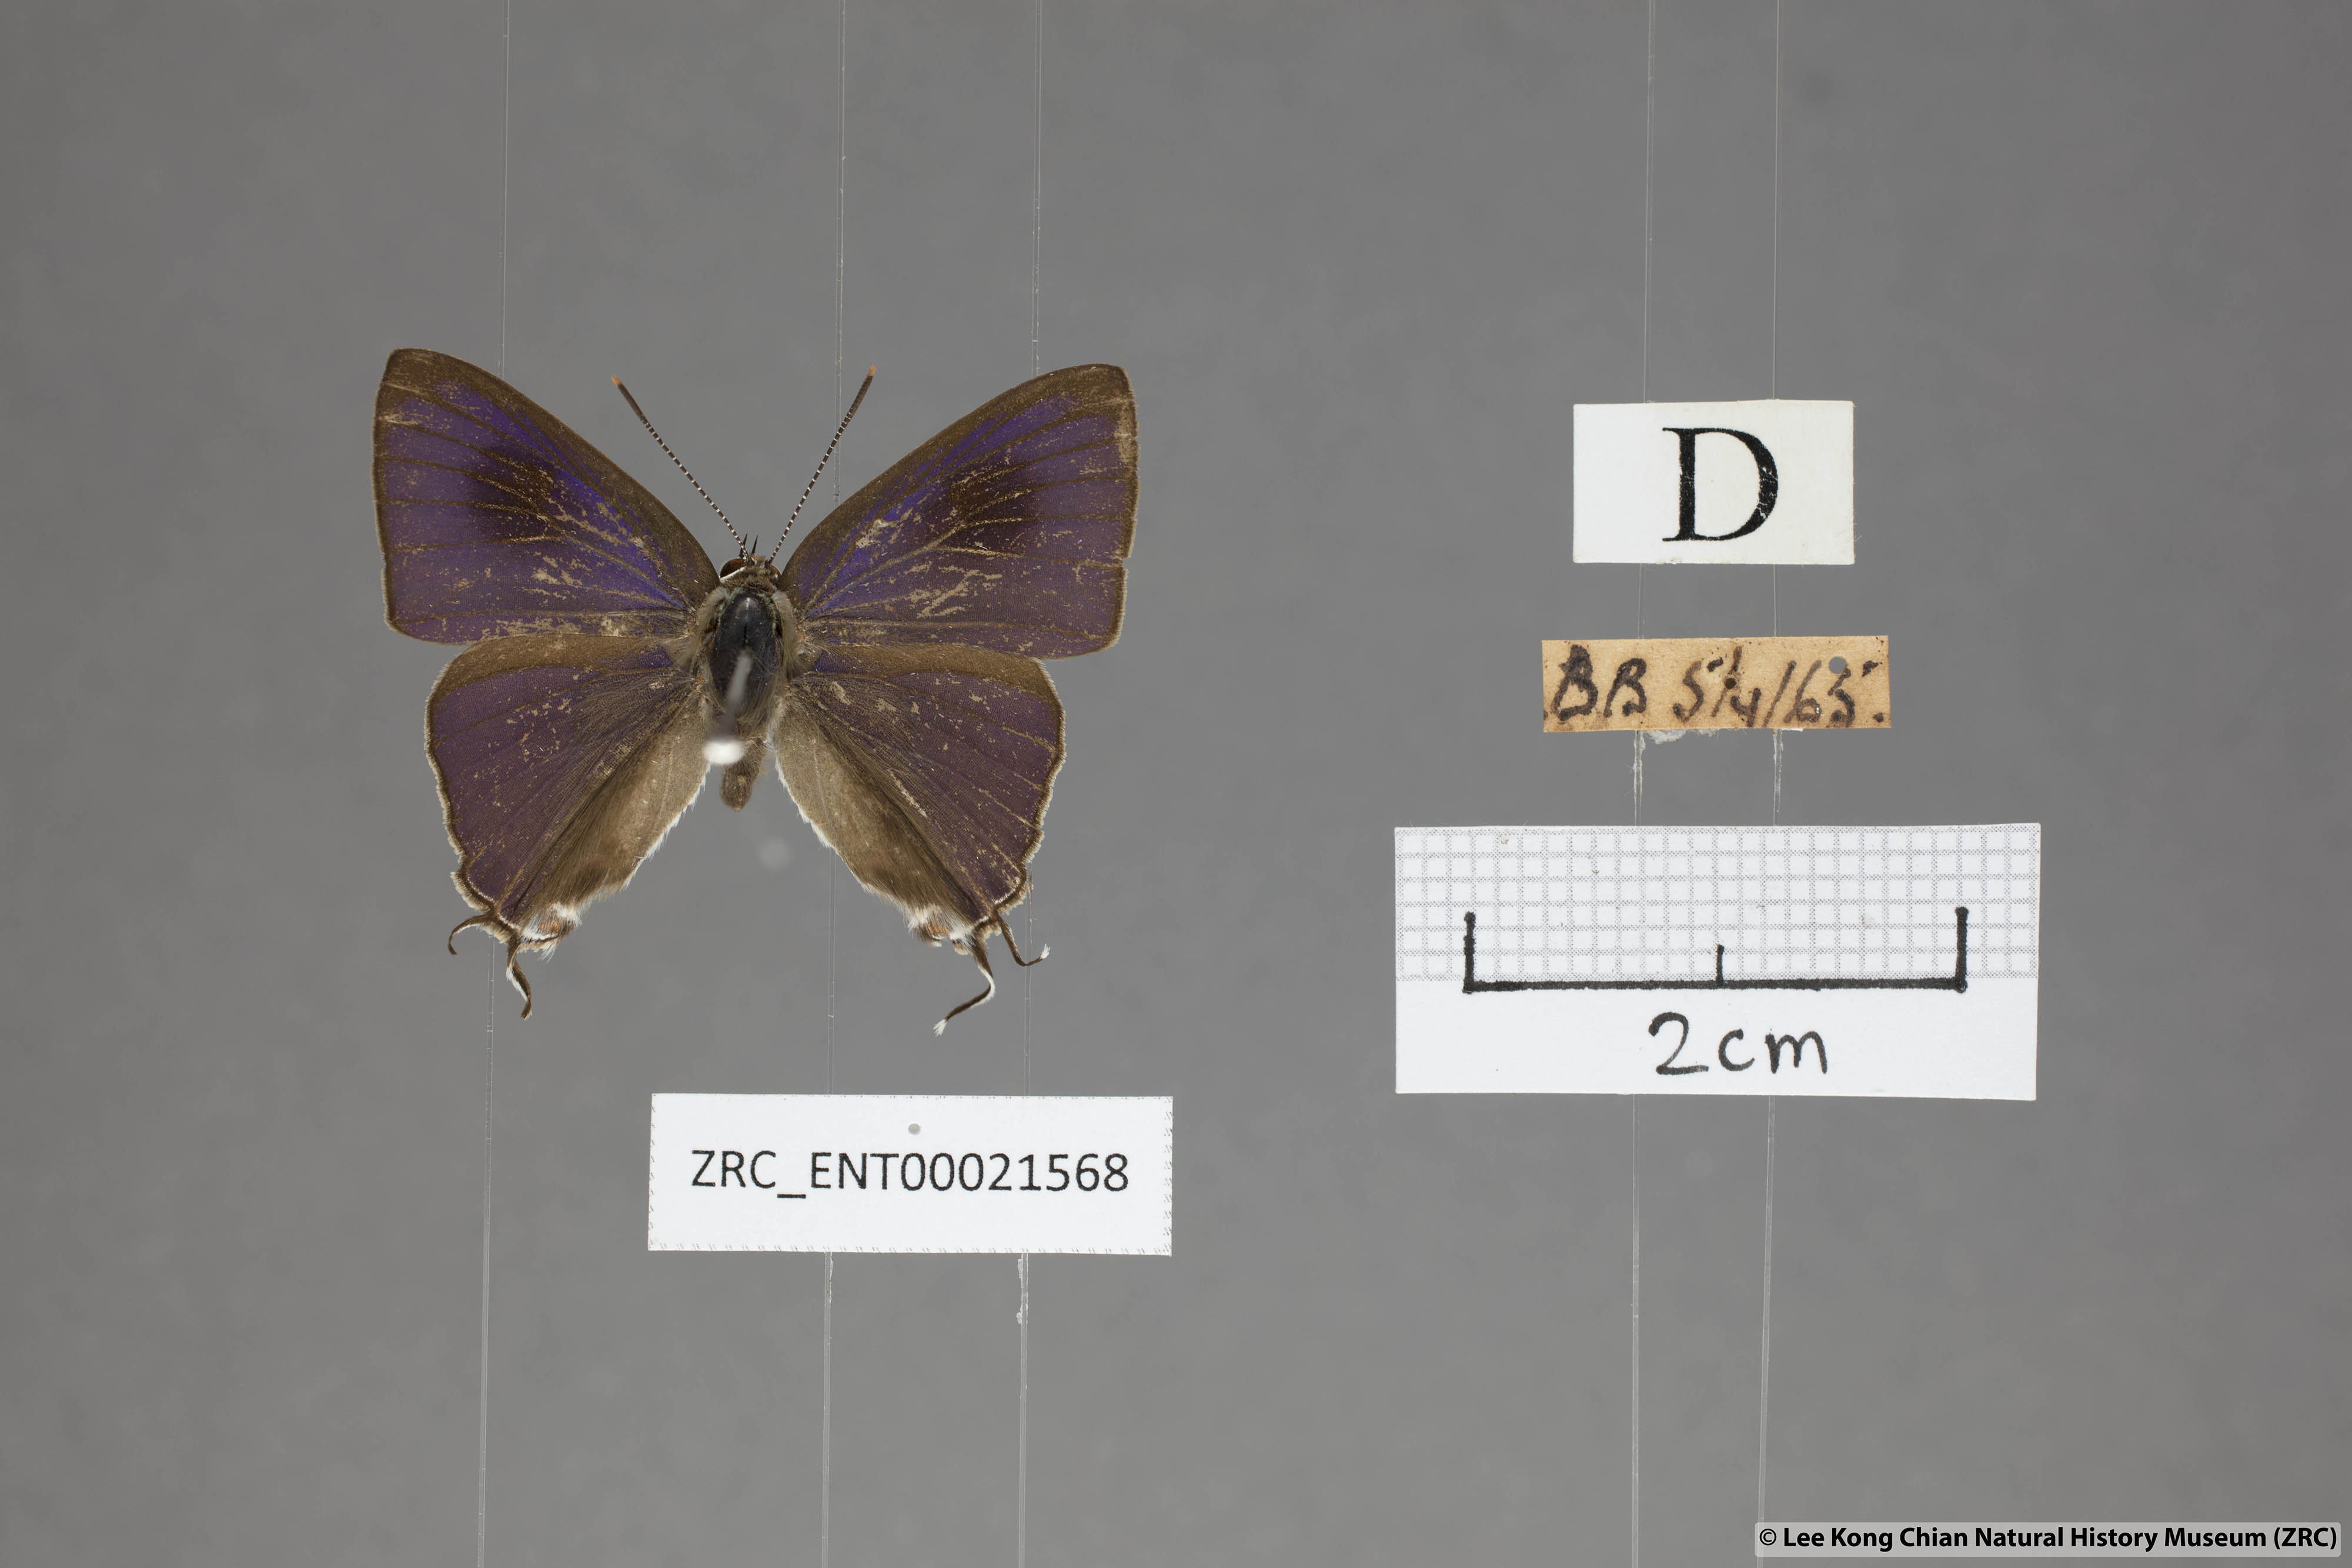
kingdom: Animalia
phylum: Arthropoda
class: Insecta
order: Lepidoptera
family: Lycaenidae
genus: Hypolycaena
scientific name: Hypolycaena erylus
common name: Common tit
